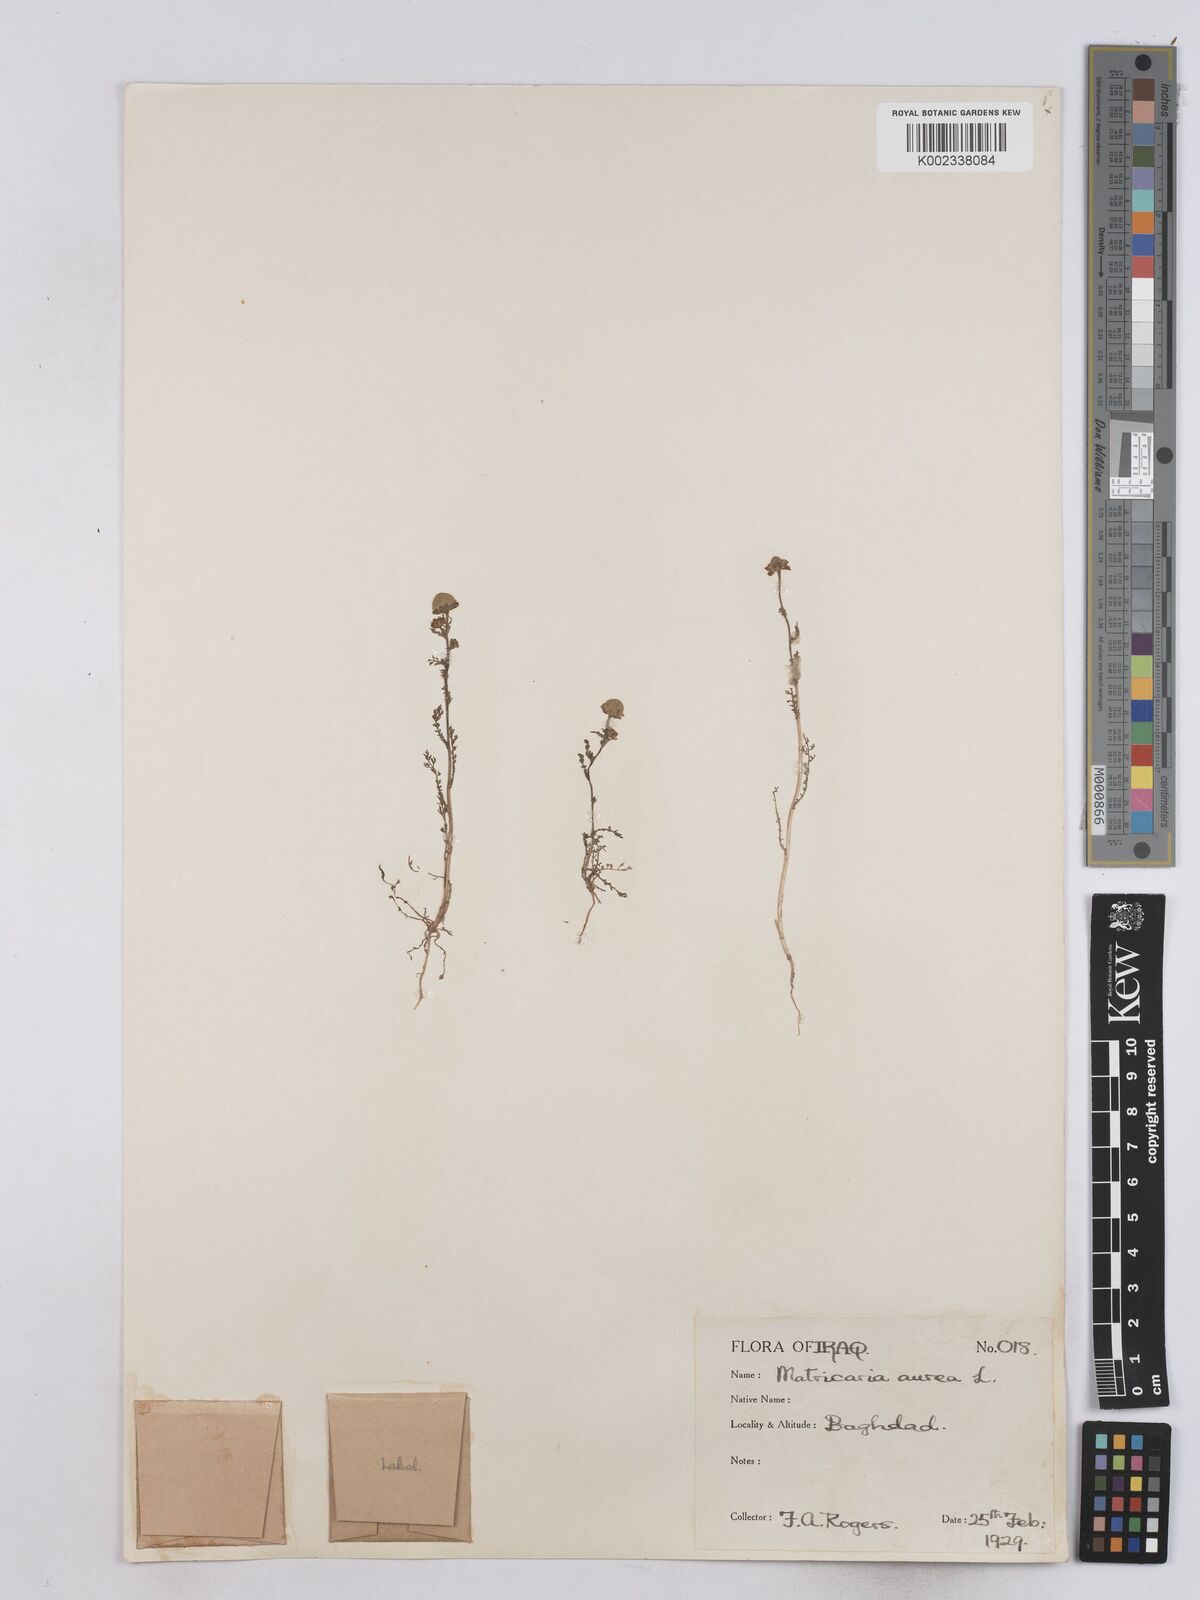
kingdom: Plantae
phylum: Tracheophyta
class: Magnoliopsida
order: Asterales
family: Asteraceae
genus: Matricaria
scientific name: Matricaria aurea
